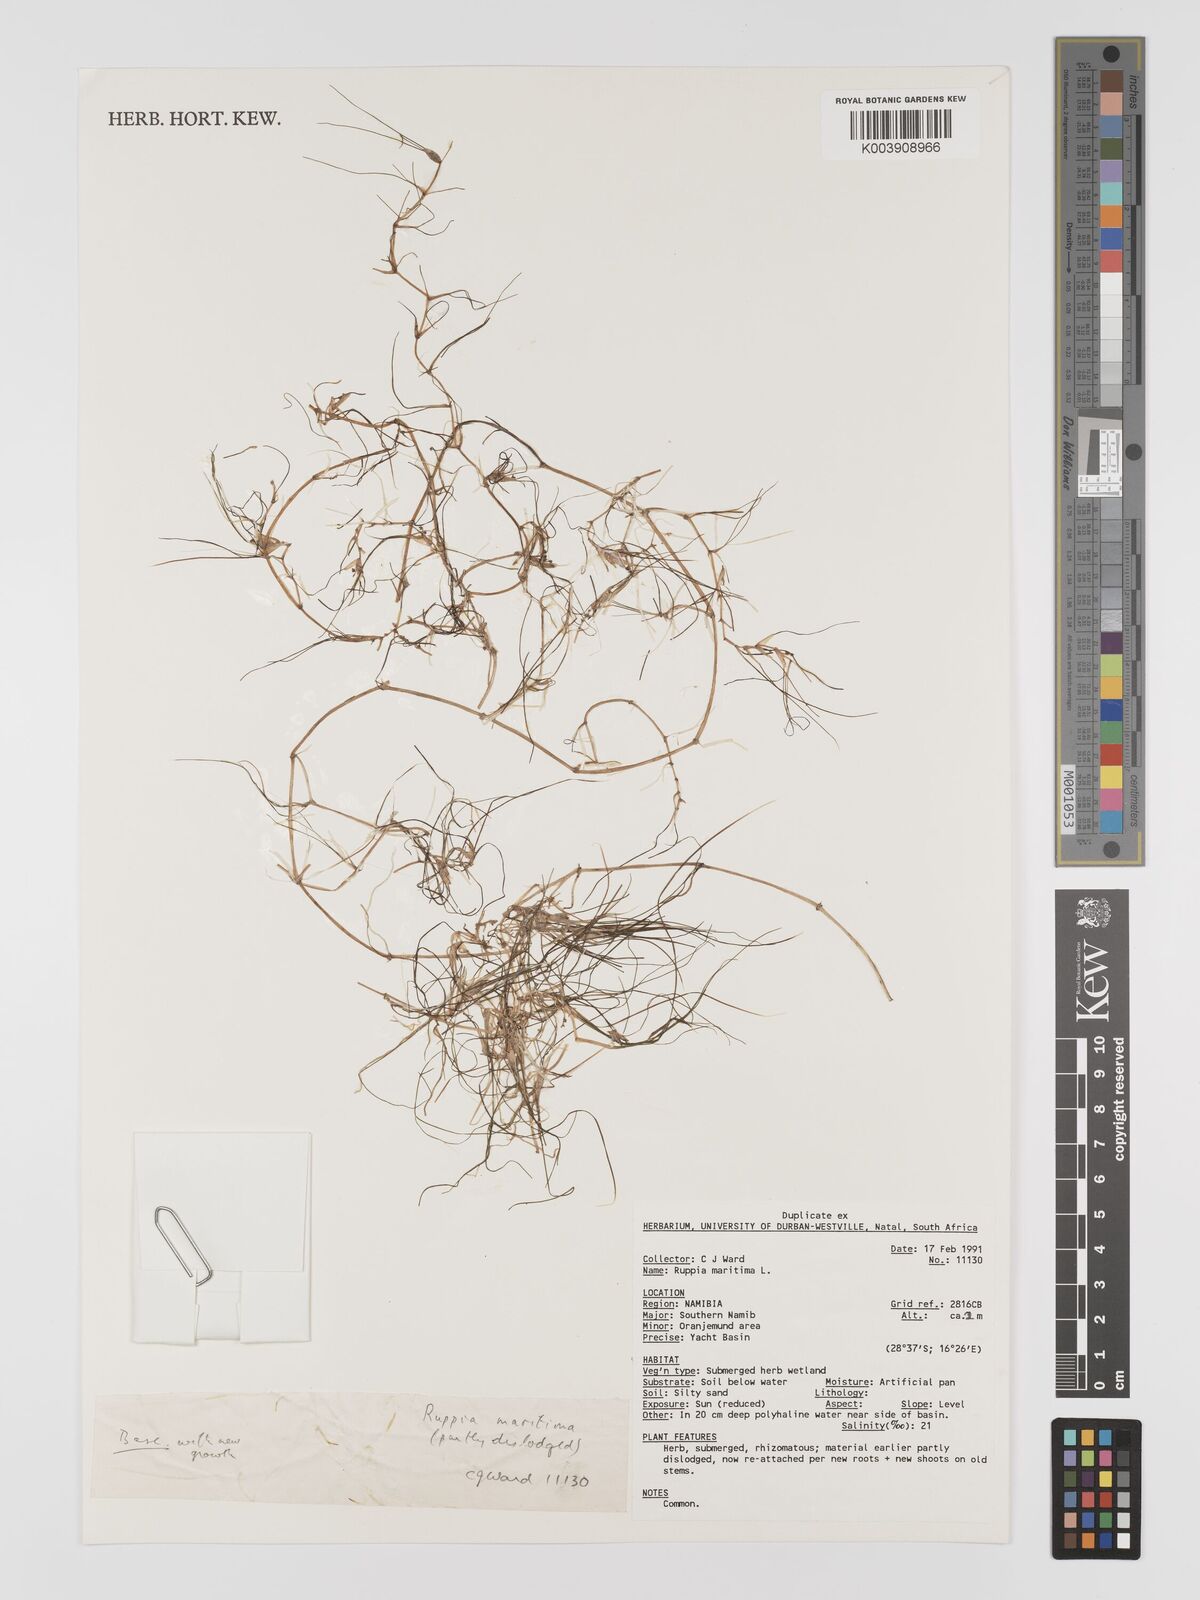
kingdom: Plantae
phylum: Tracheophyta
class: Liliopsida
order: Alismatales
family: Ruppiaceae
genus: Ruppia
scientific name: Ruppia maritima
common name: Beaked tasselweed
